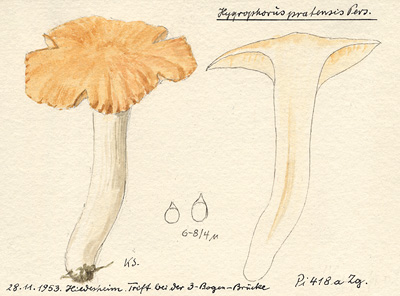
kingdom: Fungi
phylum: Basidiomycota
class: Agaricomycetes
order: Agaricales
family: Hygrophoraceae
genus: Cuphophyllus
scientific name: Cuphophyllus pratensis
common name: Meadow waxcap
